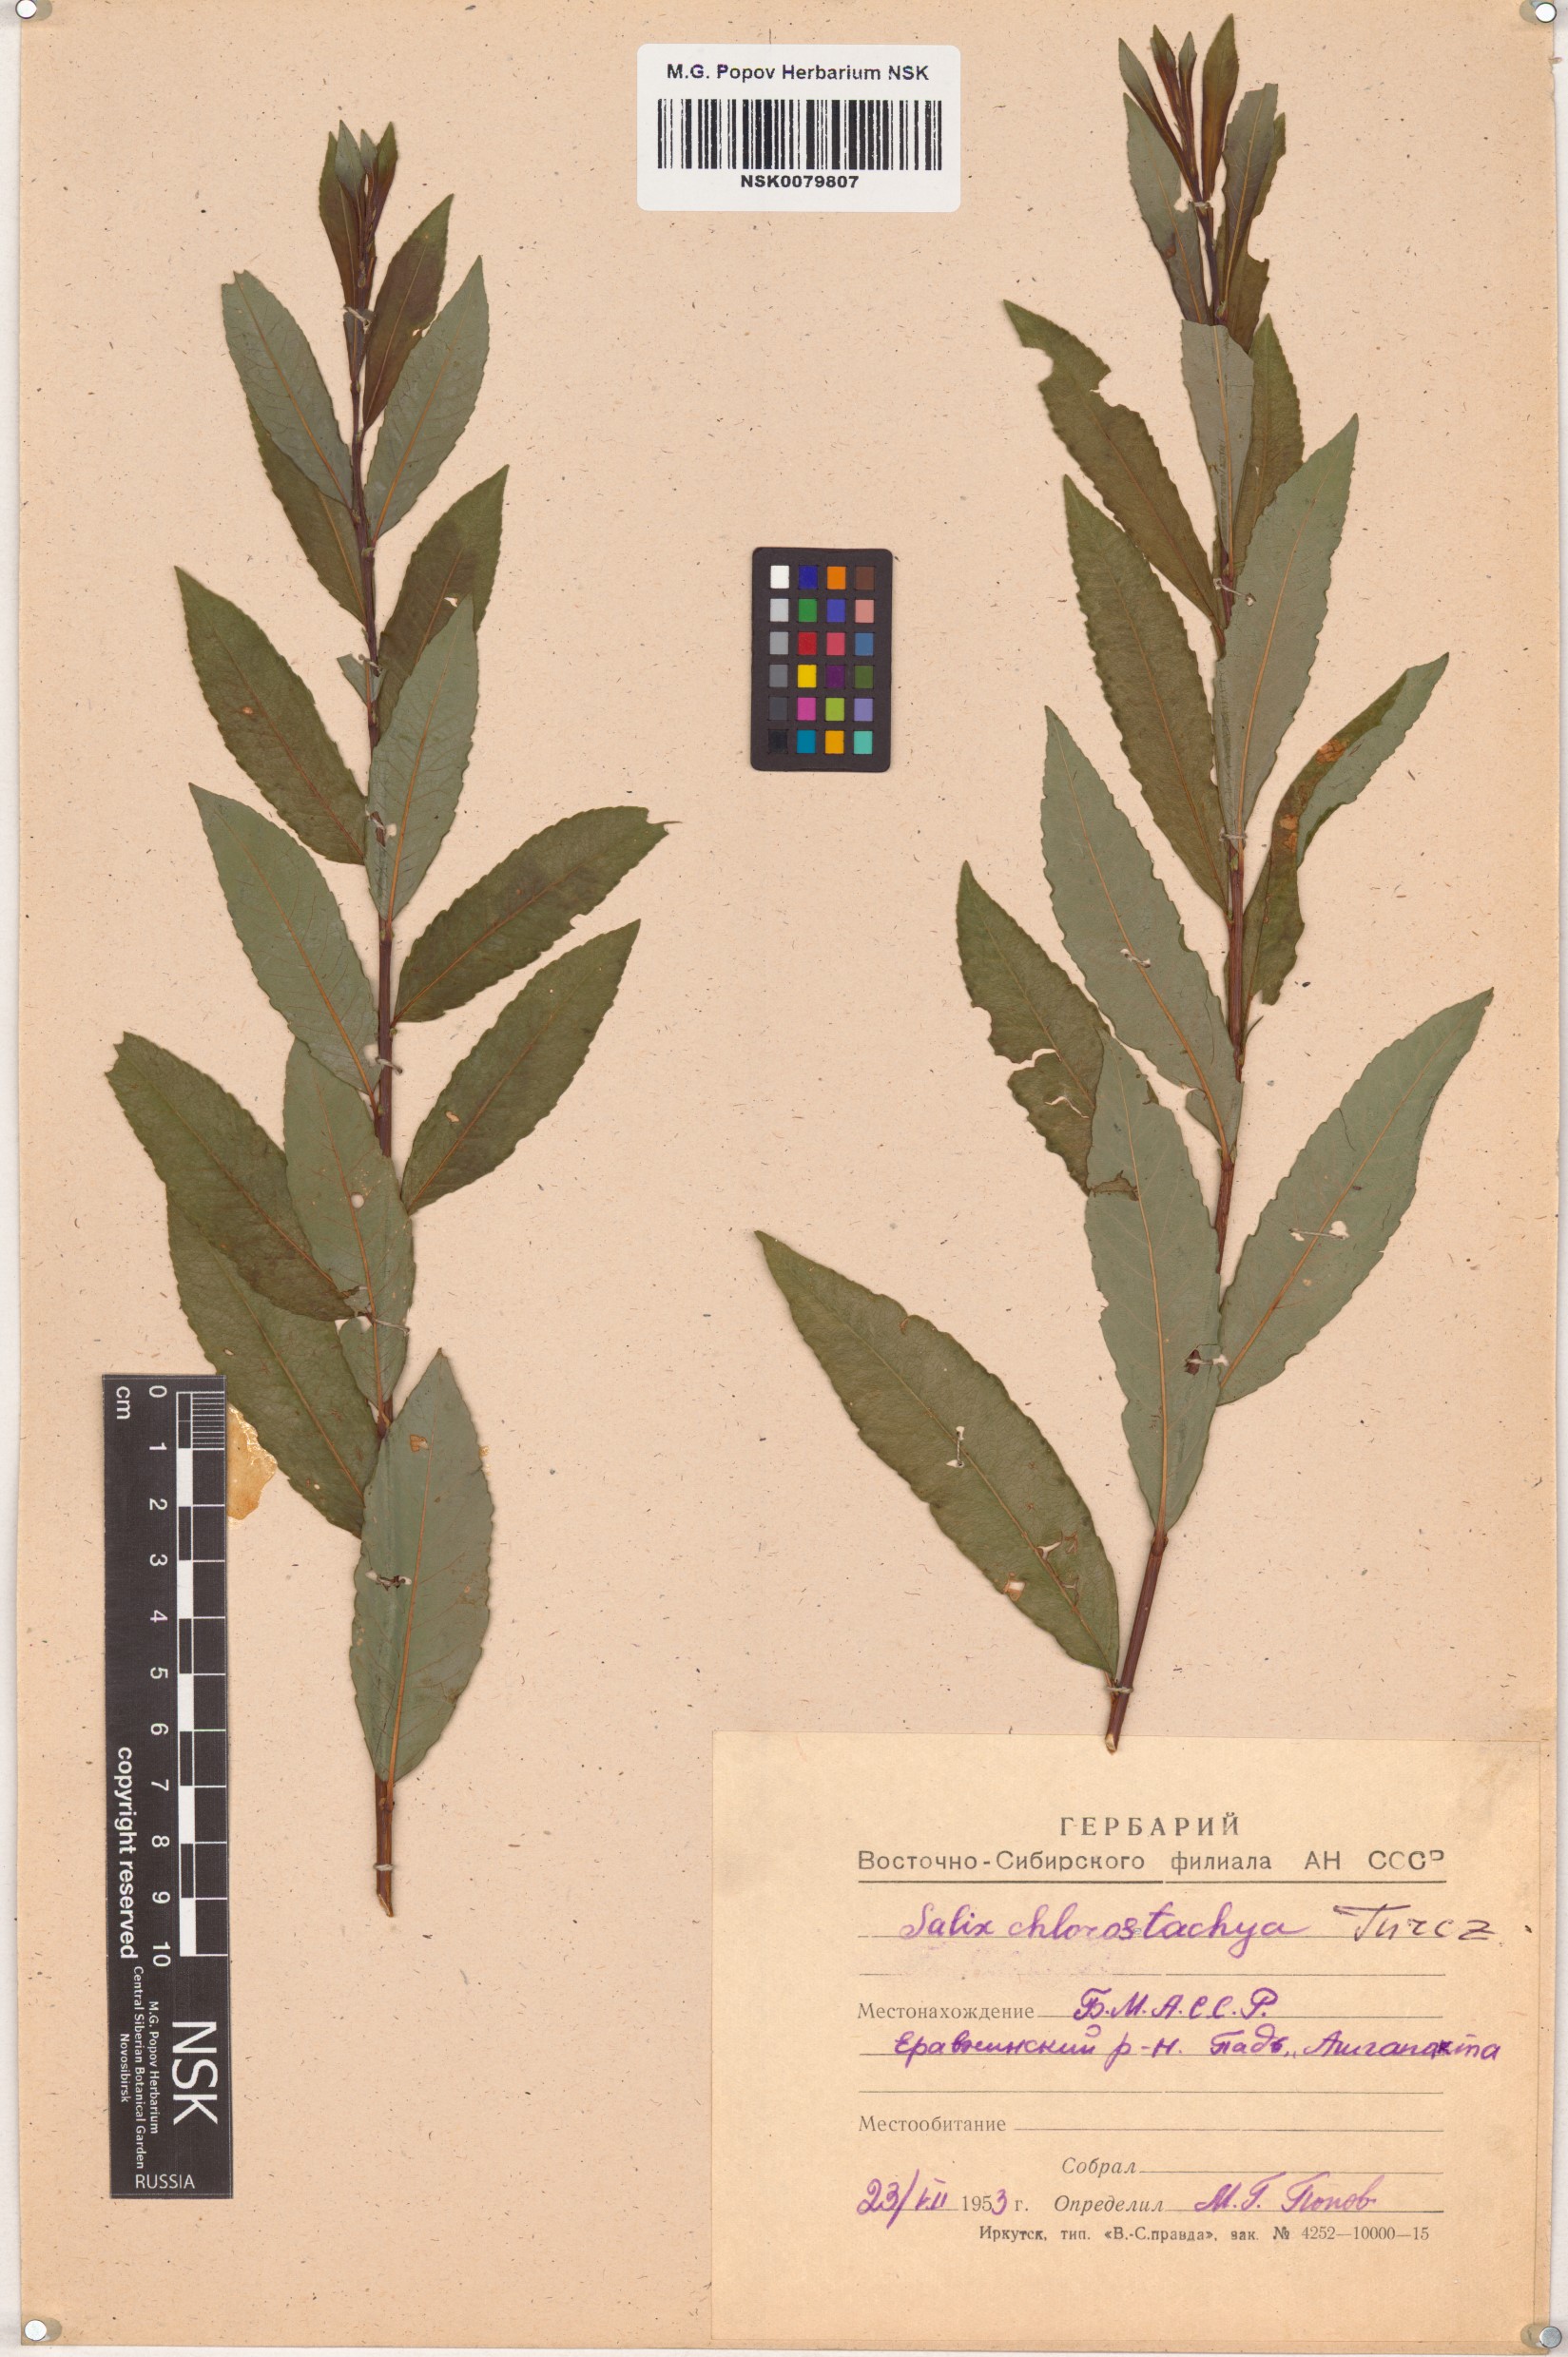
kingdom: Plantae
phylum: Tracheophyta
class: Magnoliopsida
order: Malpighiales
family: Salicaceae
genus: Salix
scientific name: Salix rhamnifolia
